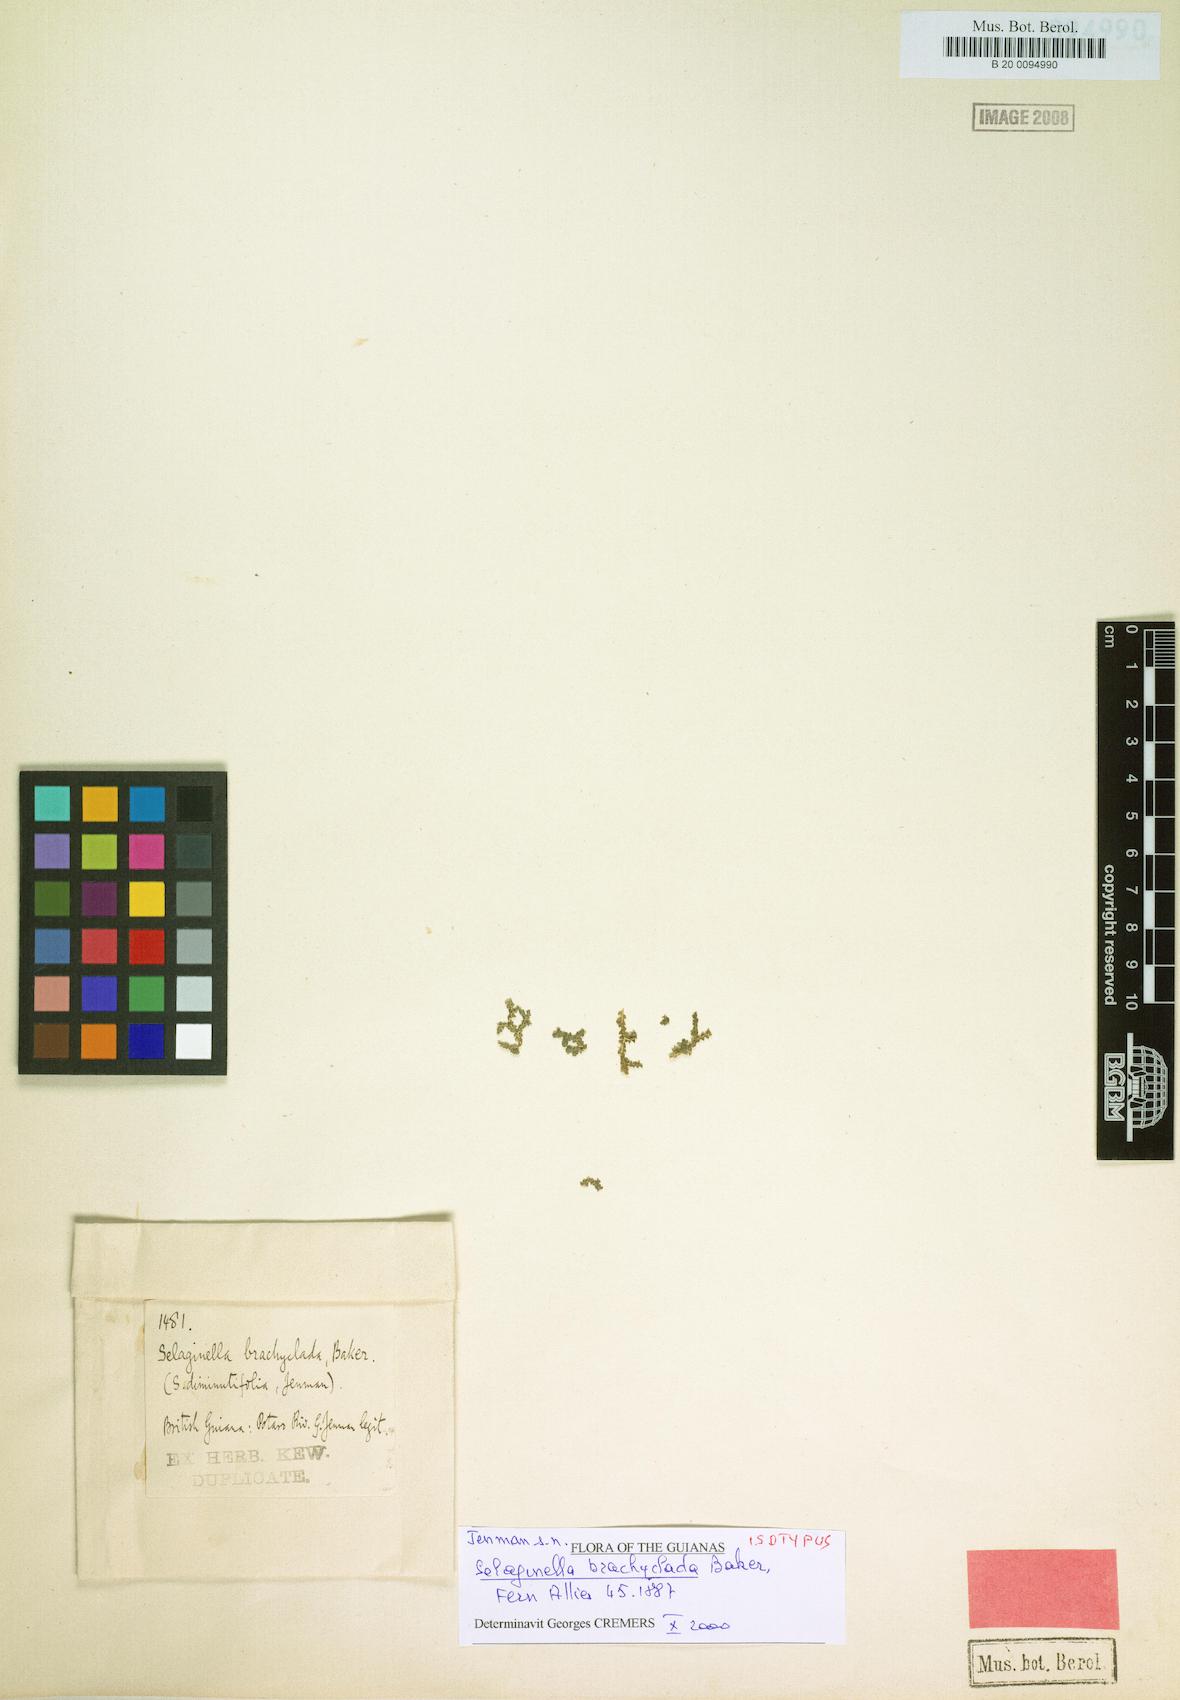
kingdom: Plantae
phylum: Tracheophyta
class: Lycopodiopsida
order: Selaginellales
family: Selaginellaceae
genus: Selaginella
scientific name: Selaginella rhodostachya
